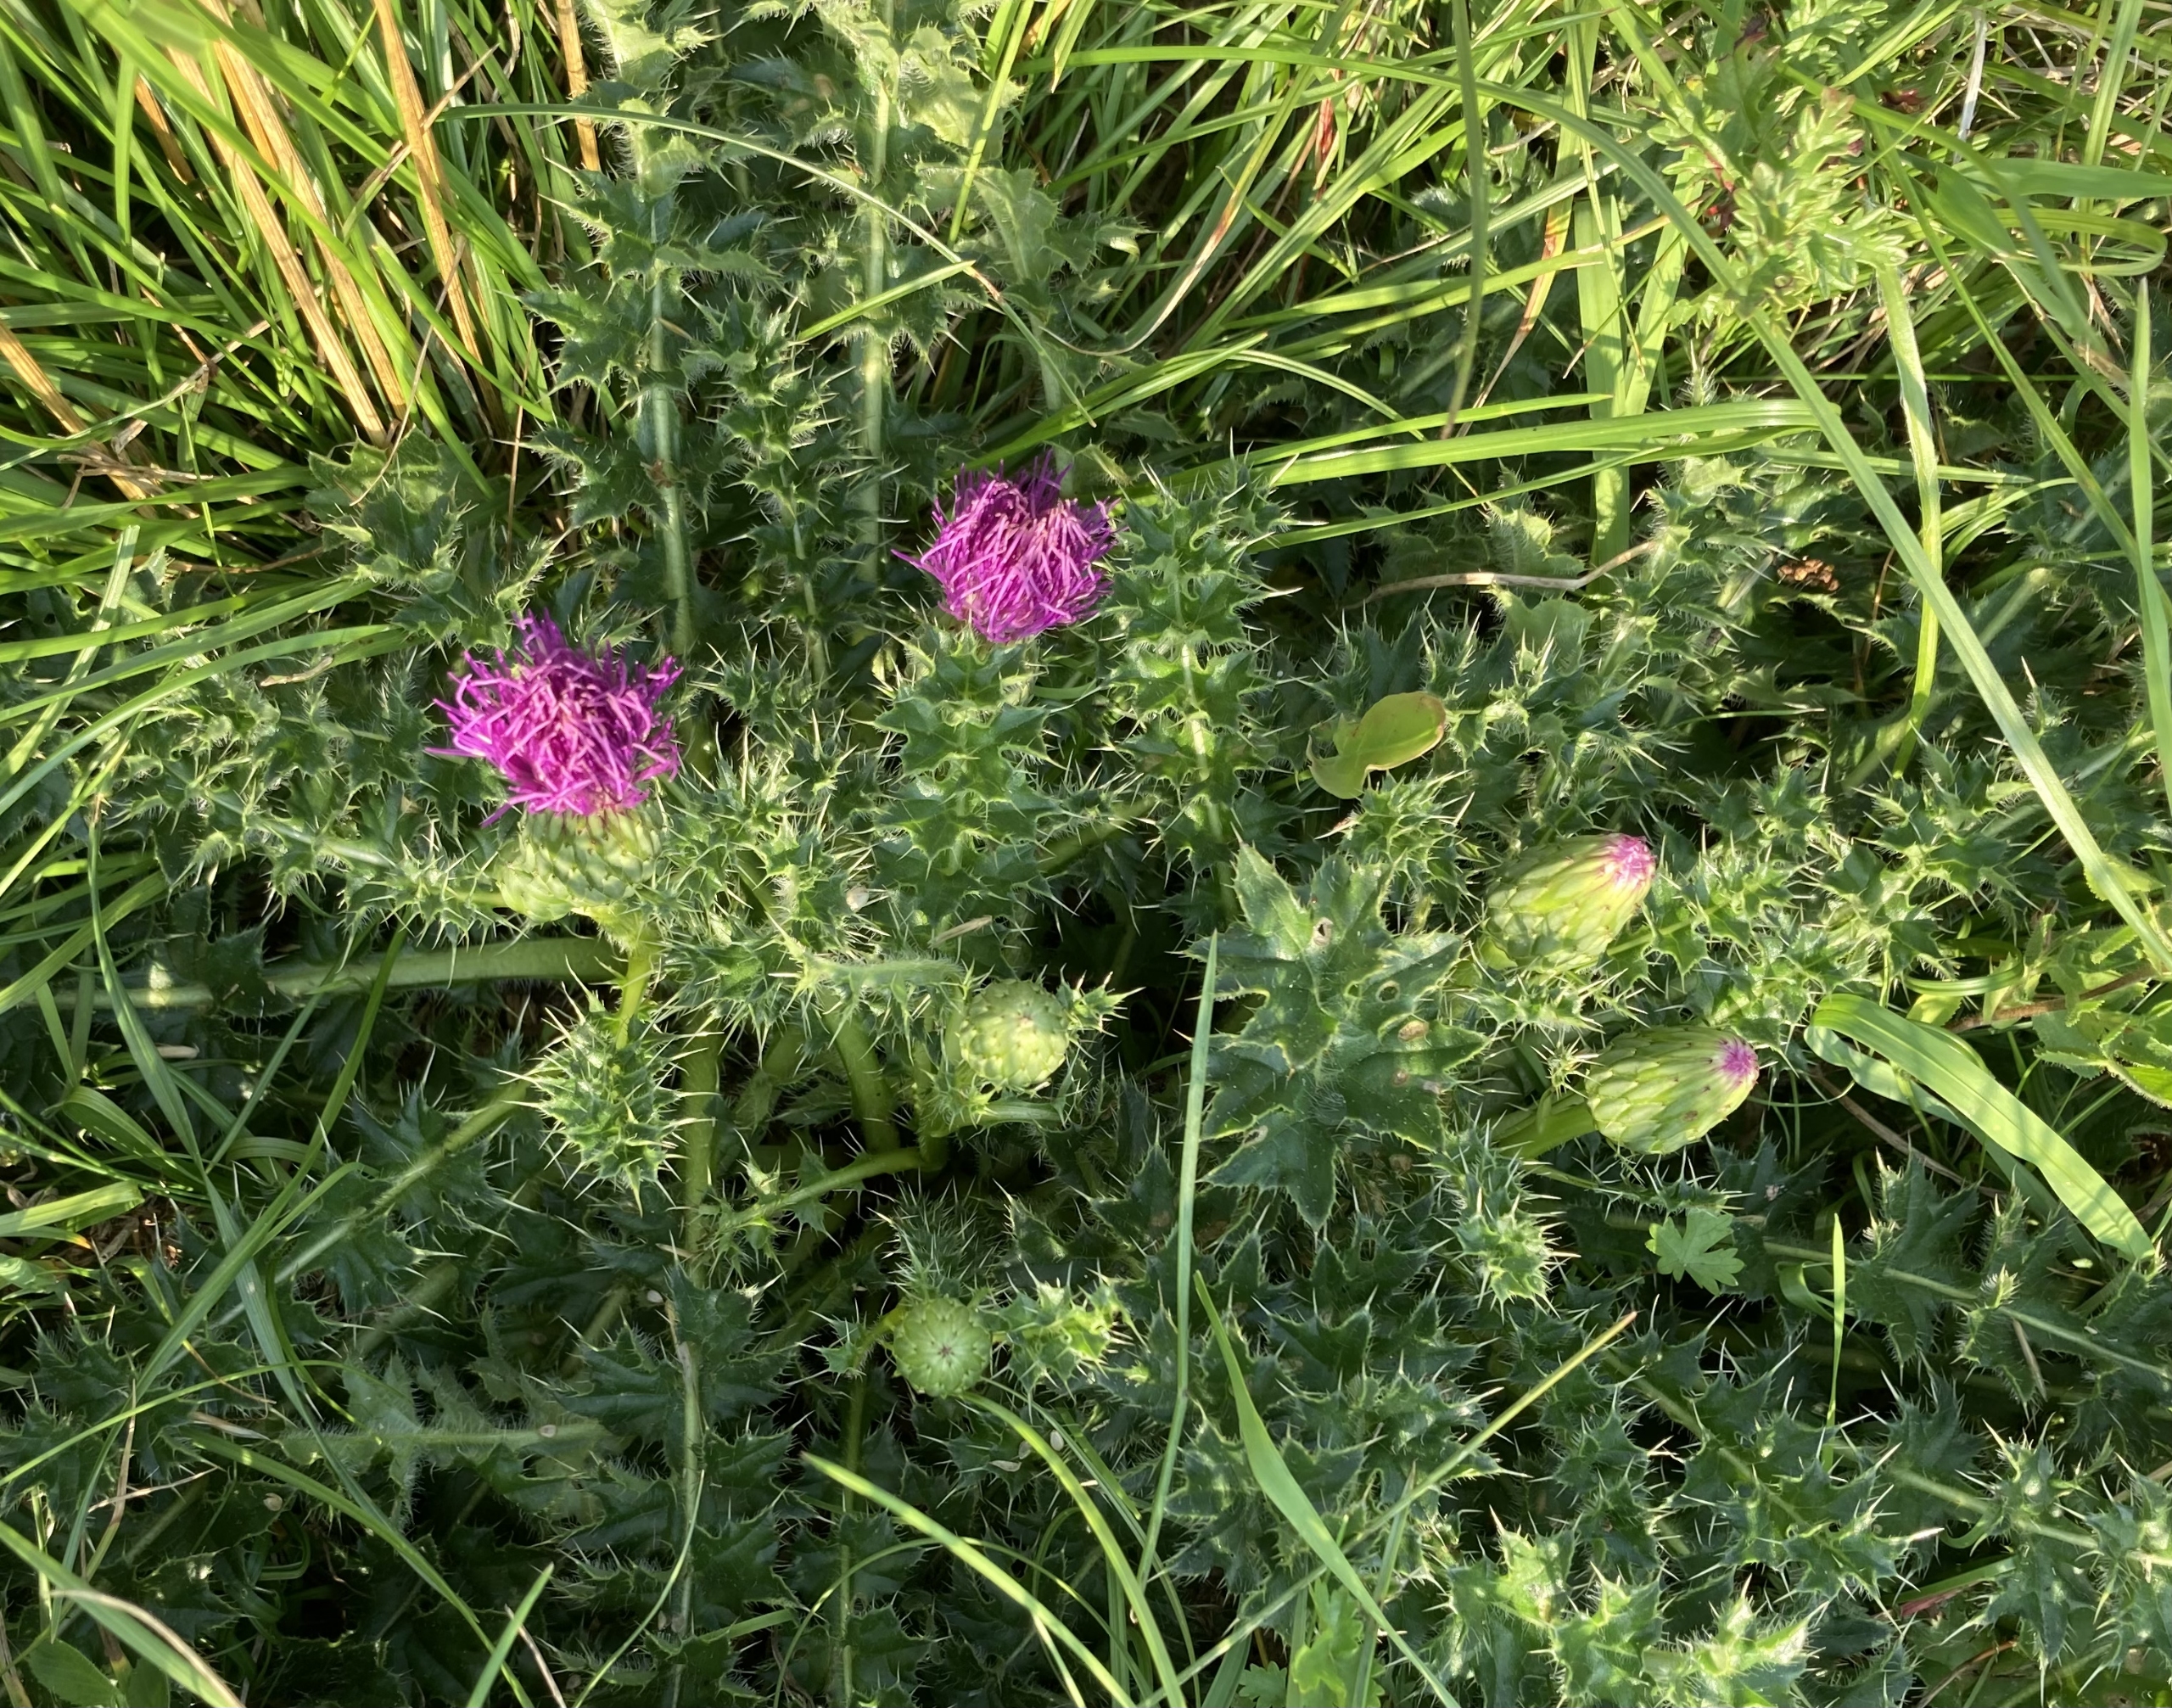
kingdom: Plantae
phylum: Tracheophyta
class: Magnoliopsida
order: Asterales
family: Asteraceae
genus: Cirsium
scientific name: Cirsium acaule
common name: Lav tidsel
